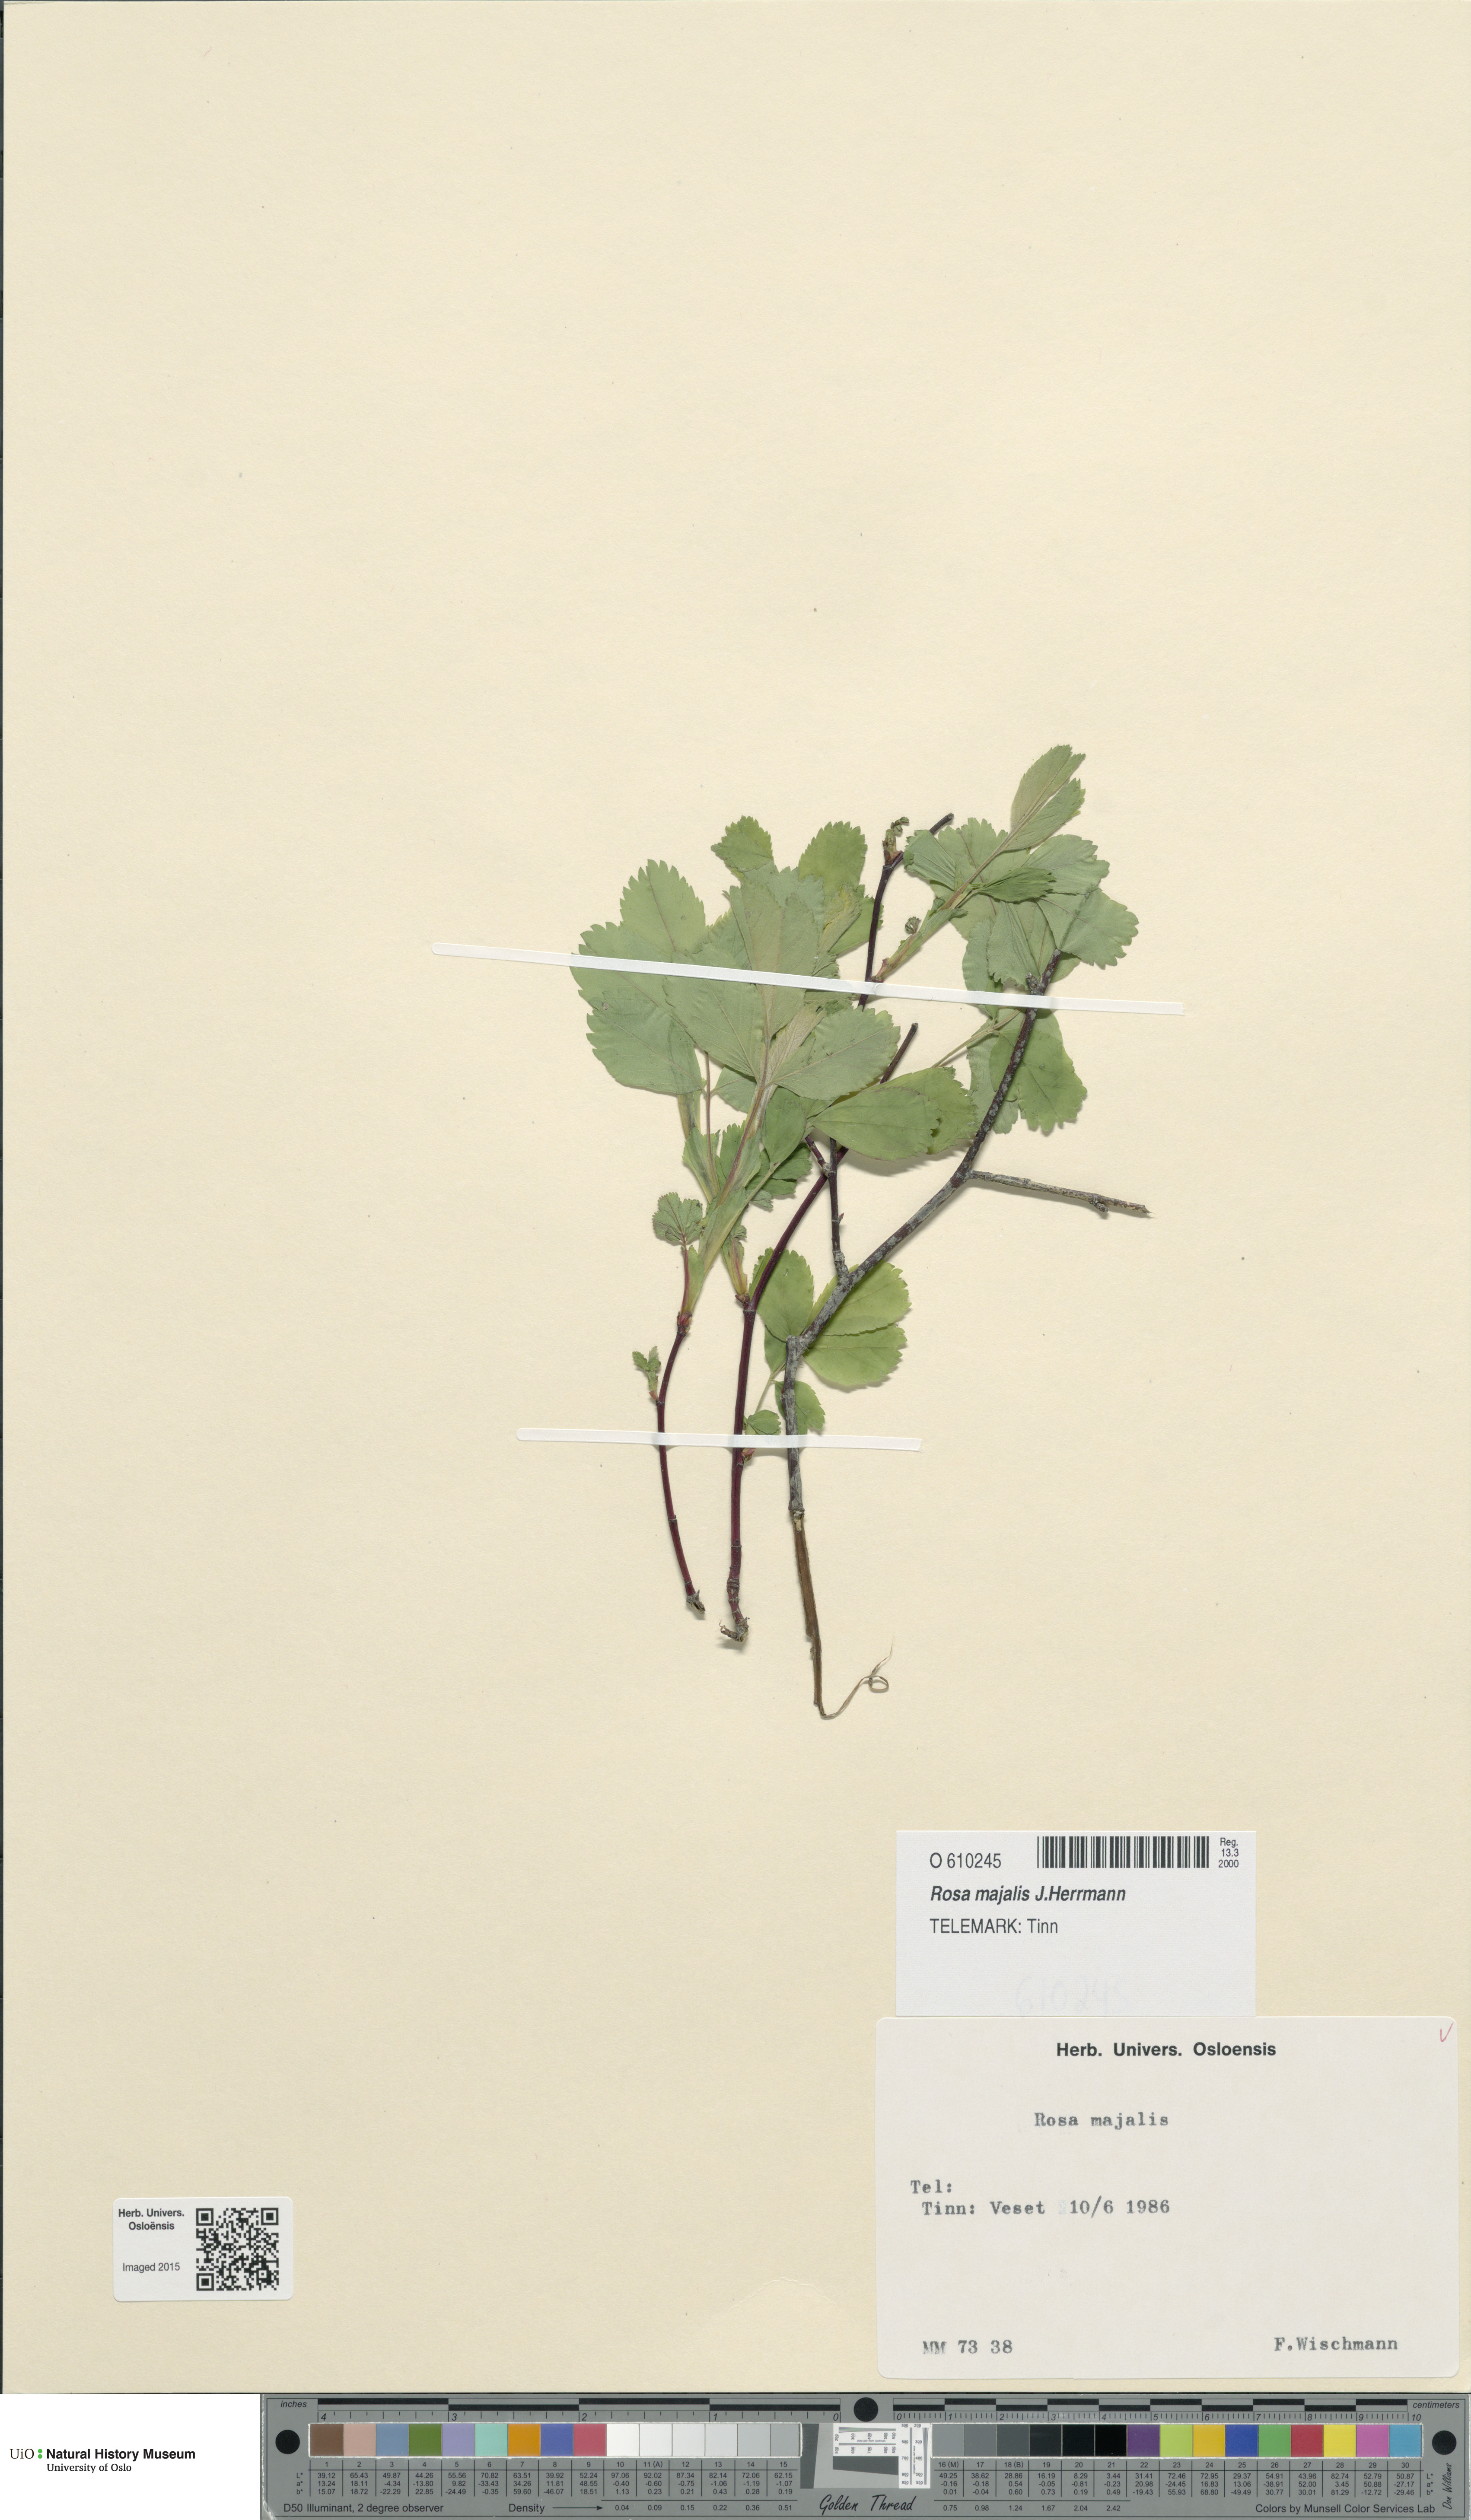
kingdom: Plantae
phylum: Tracheophyta
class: Magnoliopsida
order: Rosales
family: Rosaceae
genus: Rosa
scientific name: Rosa majalis
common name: Cinnamon rose
